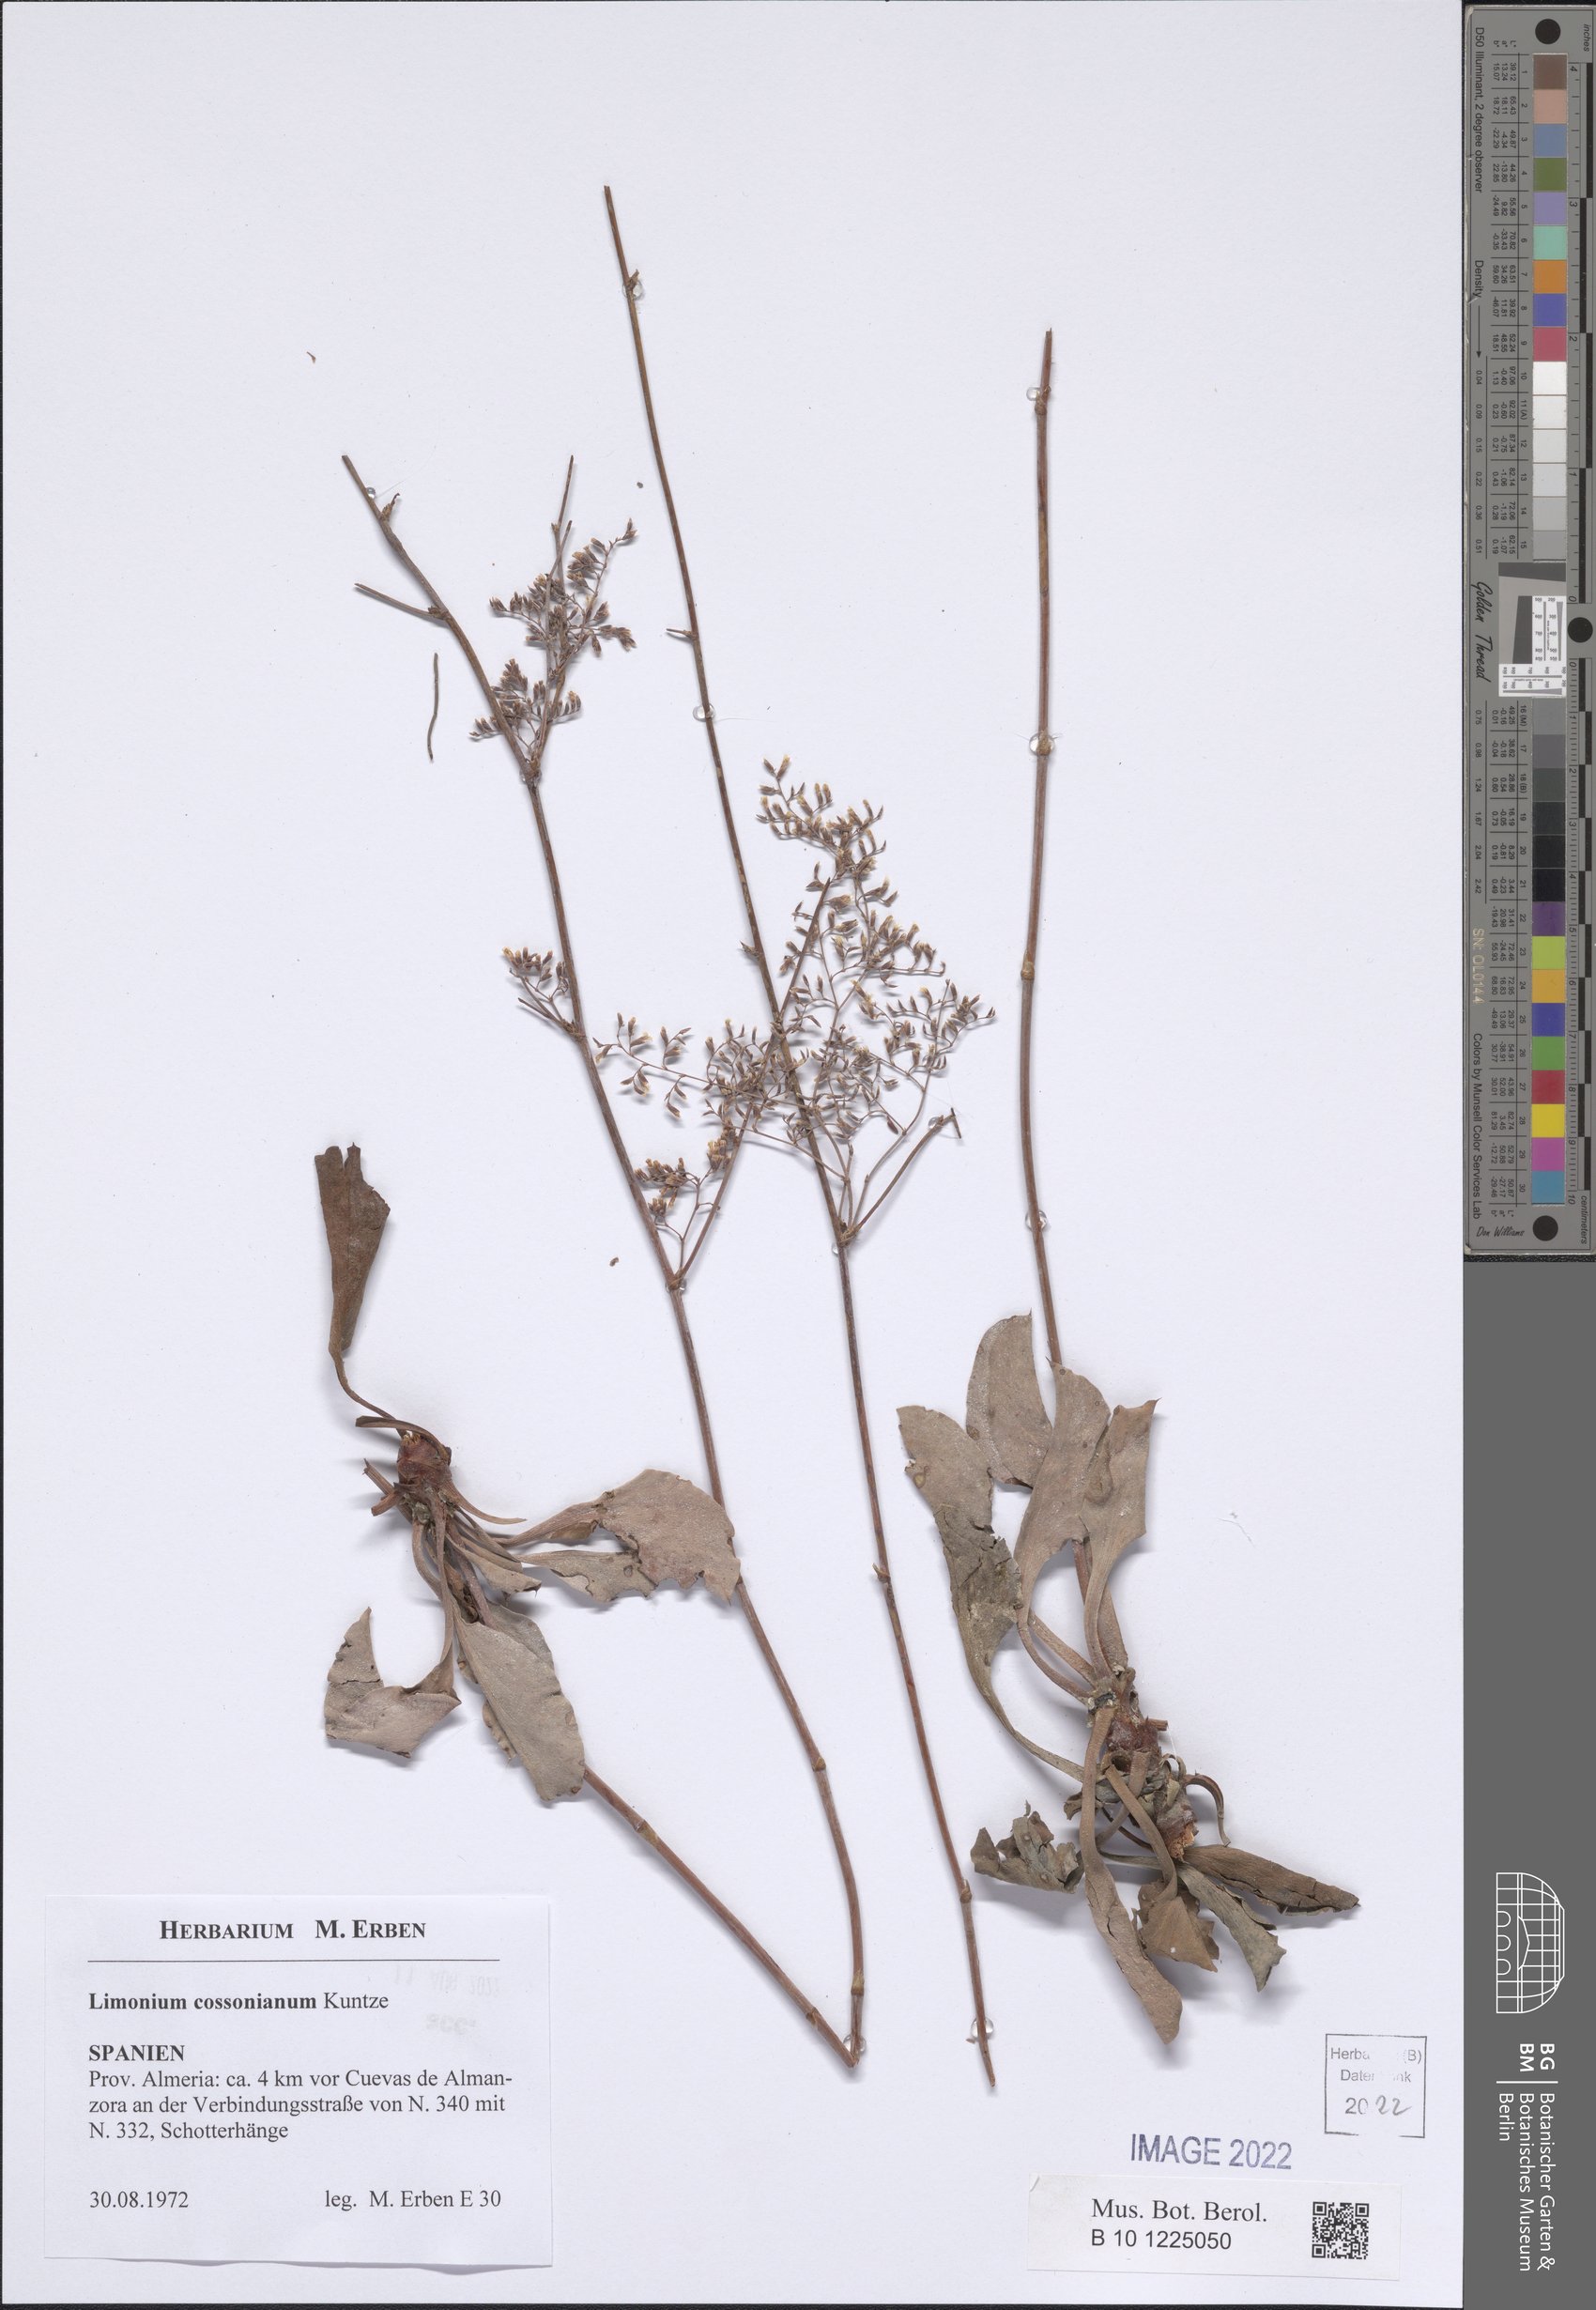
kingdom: Plantae
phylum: Tracheophyta
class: Magnoliopsida
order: Caryophyllales
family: Plumbaginaceae
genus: Limonium
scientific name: Limonium cossonianum
